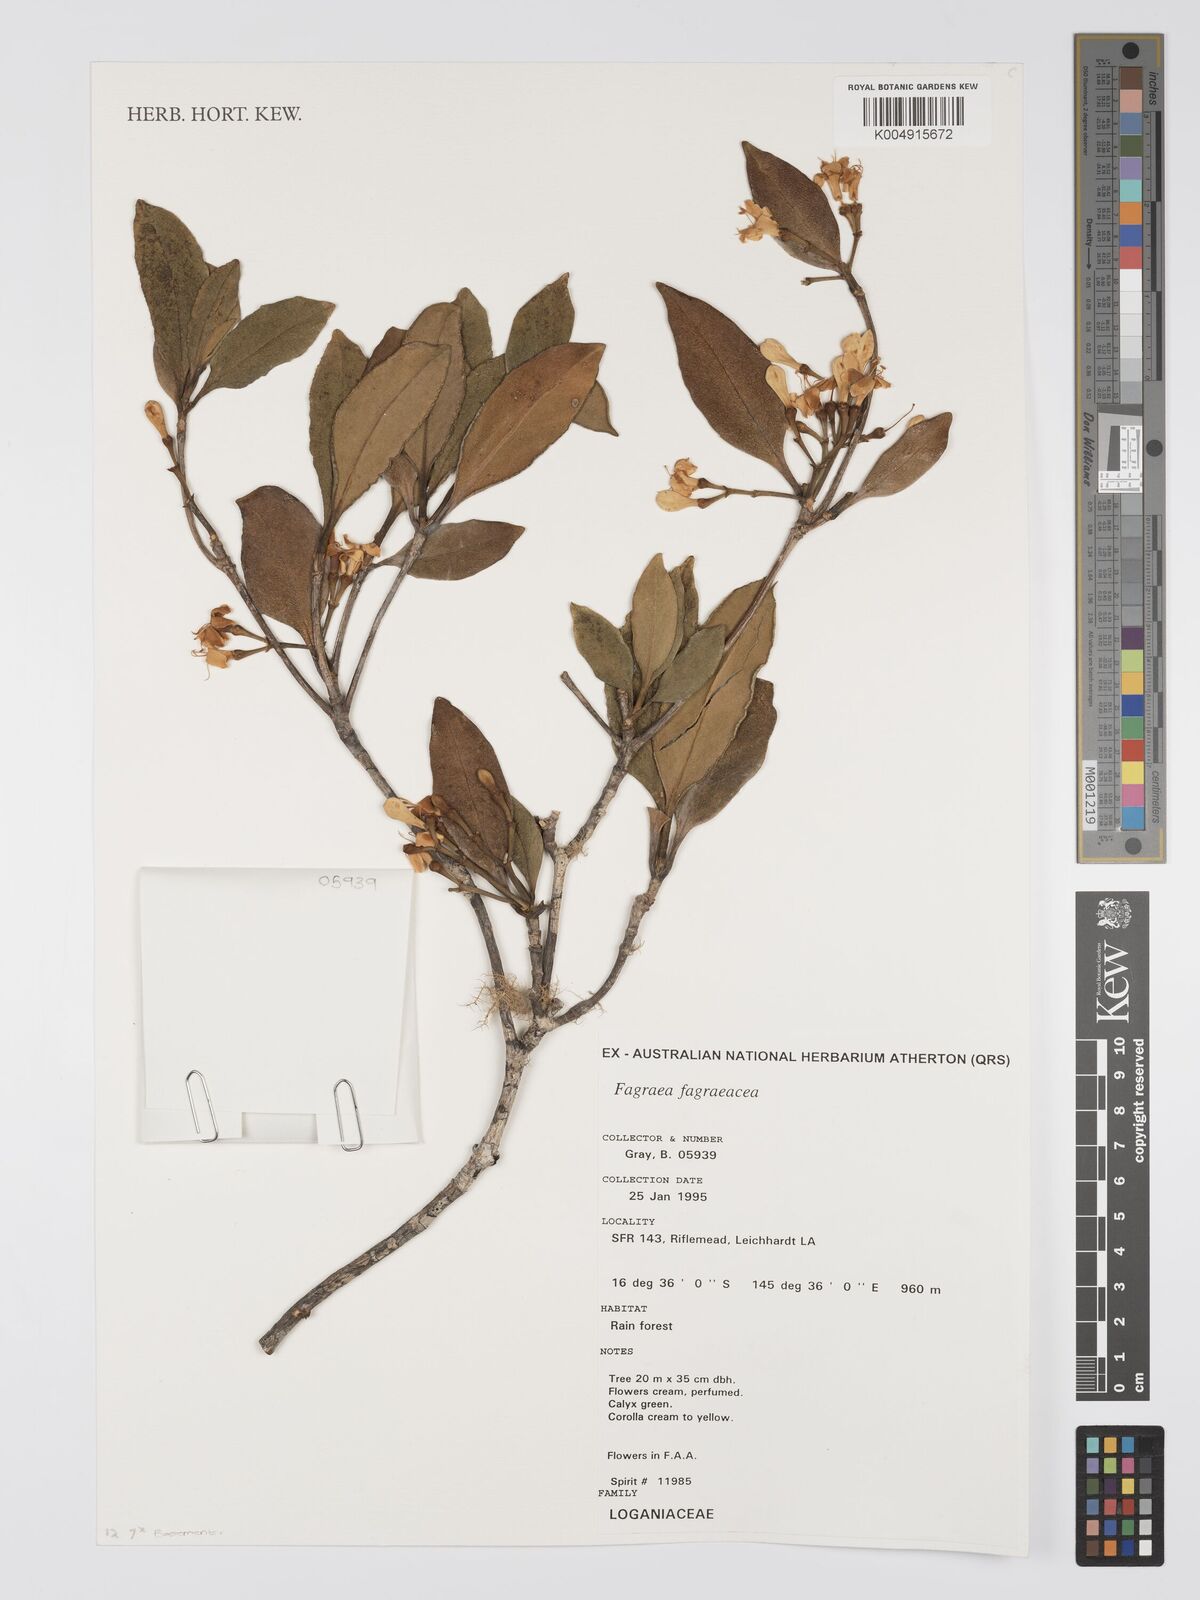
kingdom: Plantae
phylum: Tracheophyta
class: Magnoliopsida
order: Gentianales
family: Gentianaceae
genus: Fagraea
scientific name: Fagraea gracilipes
